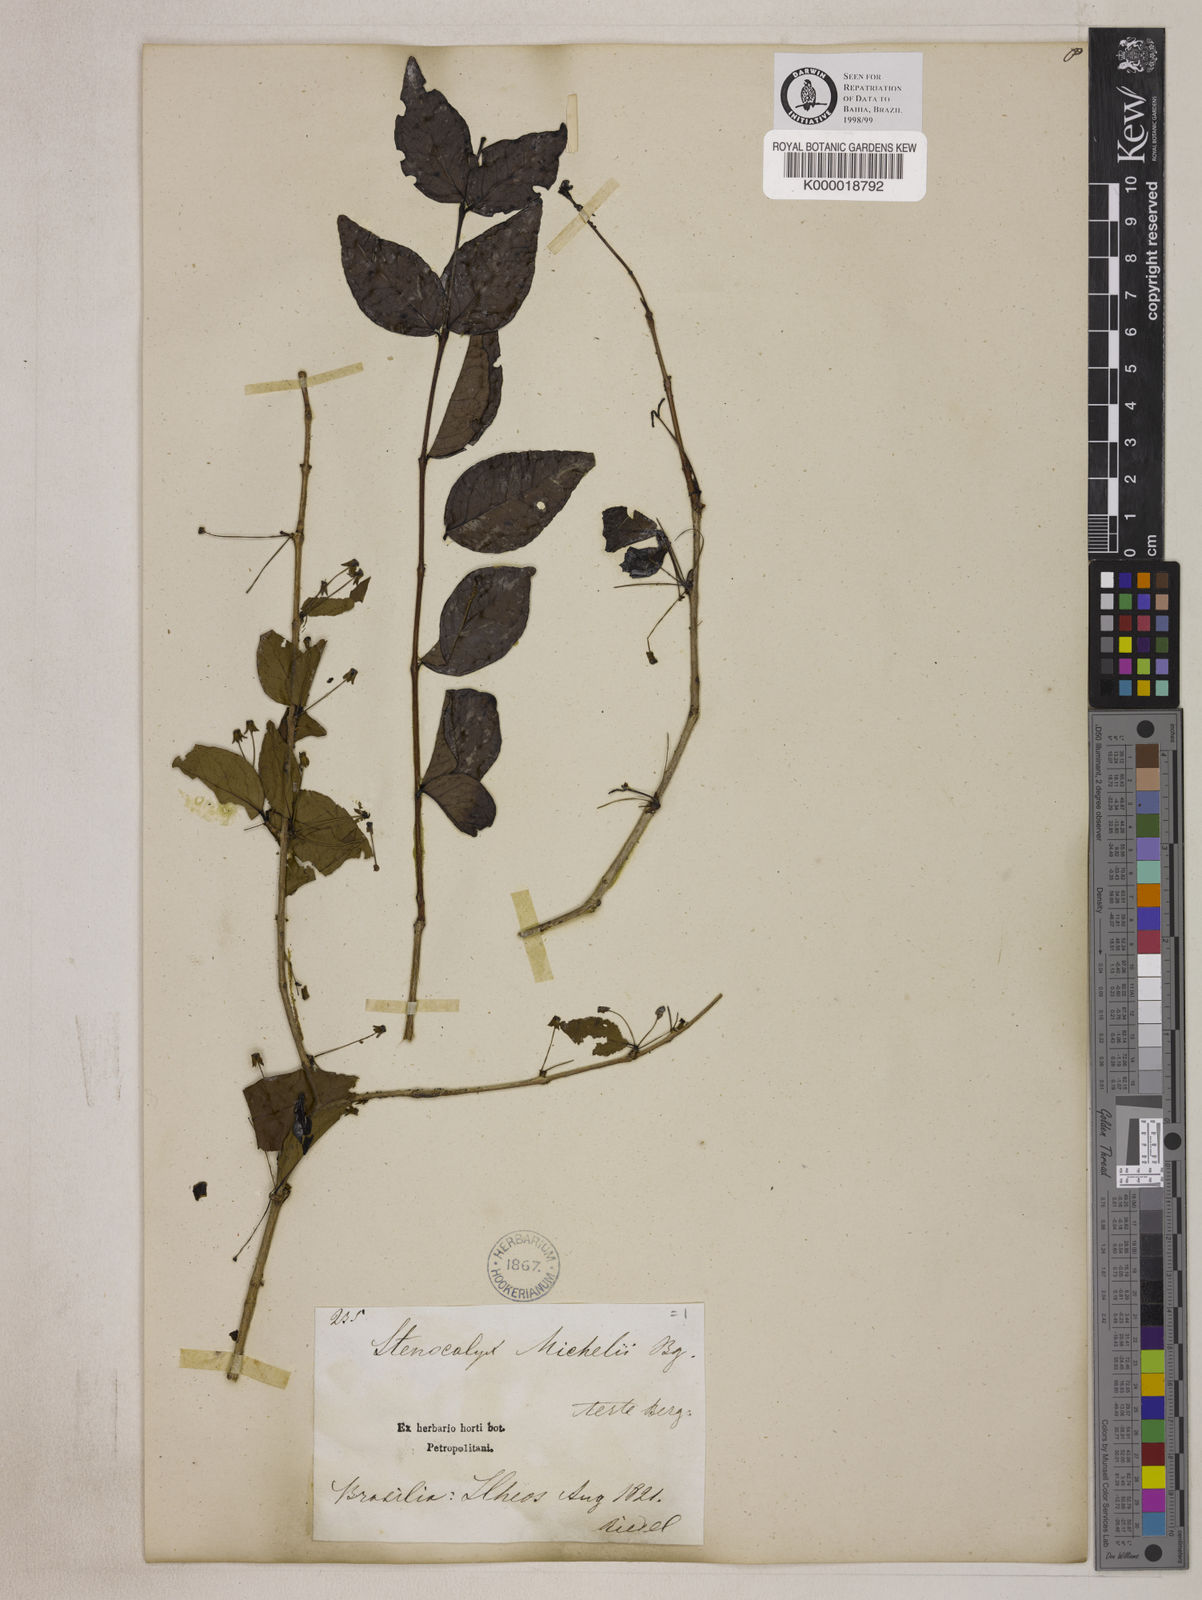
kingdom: Plantae
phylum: Tracheophyta
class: Magnoliopsida
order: Myrtales
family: Myrtaceae
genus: Eugenia
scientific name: Eugenia uniflora
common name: Surinam cherry
